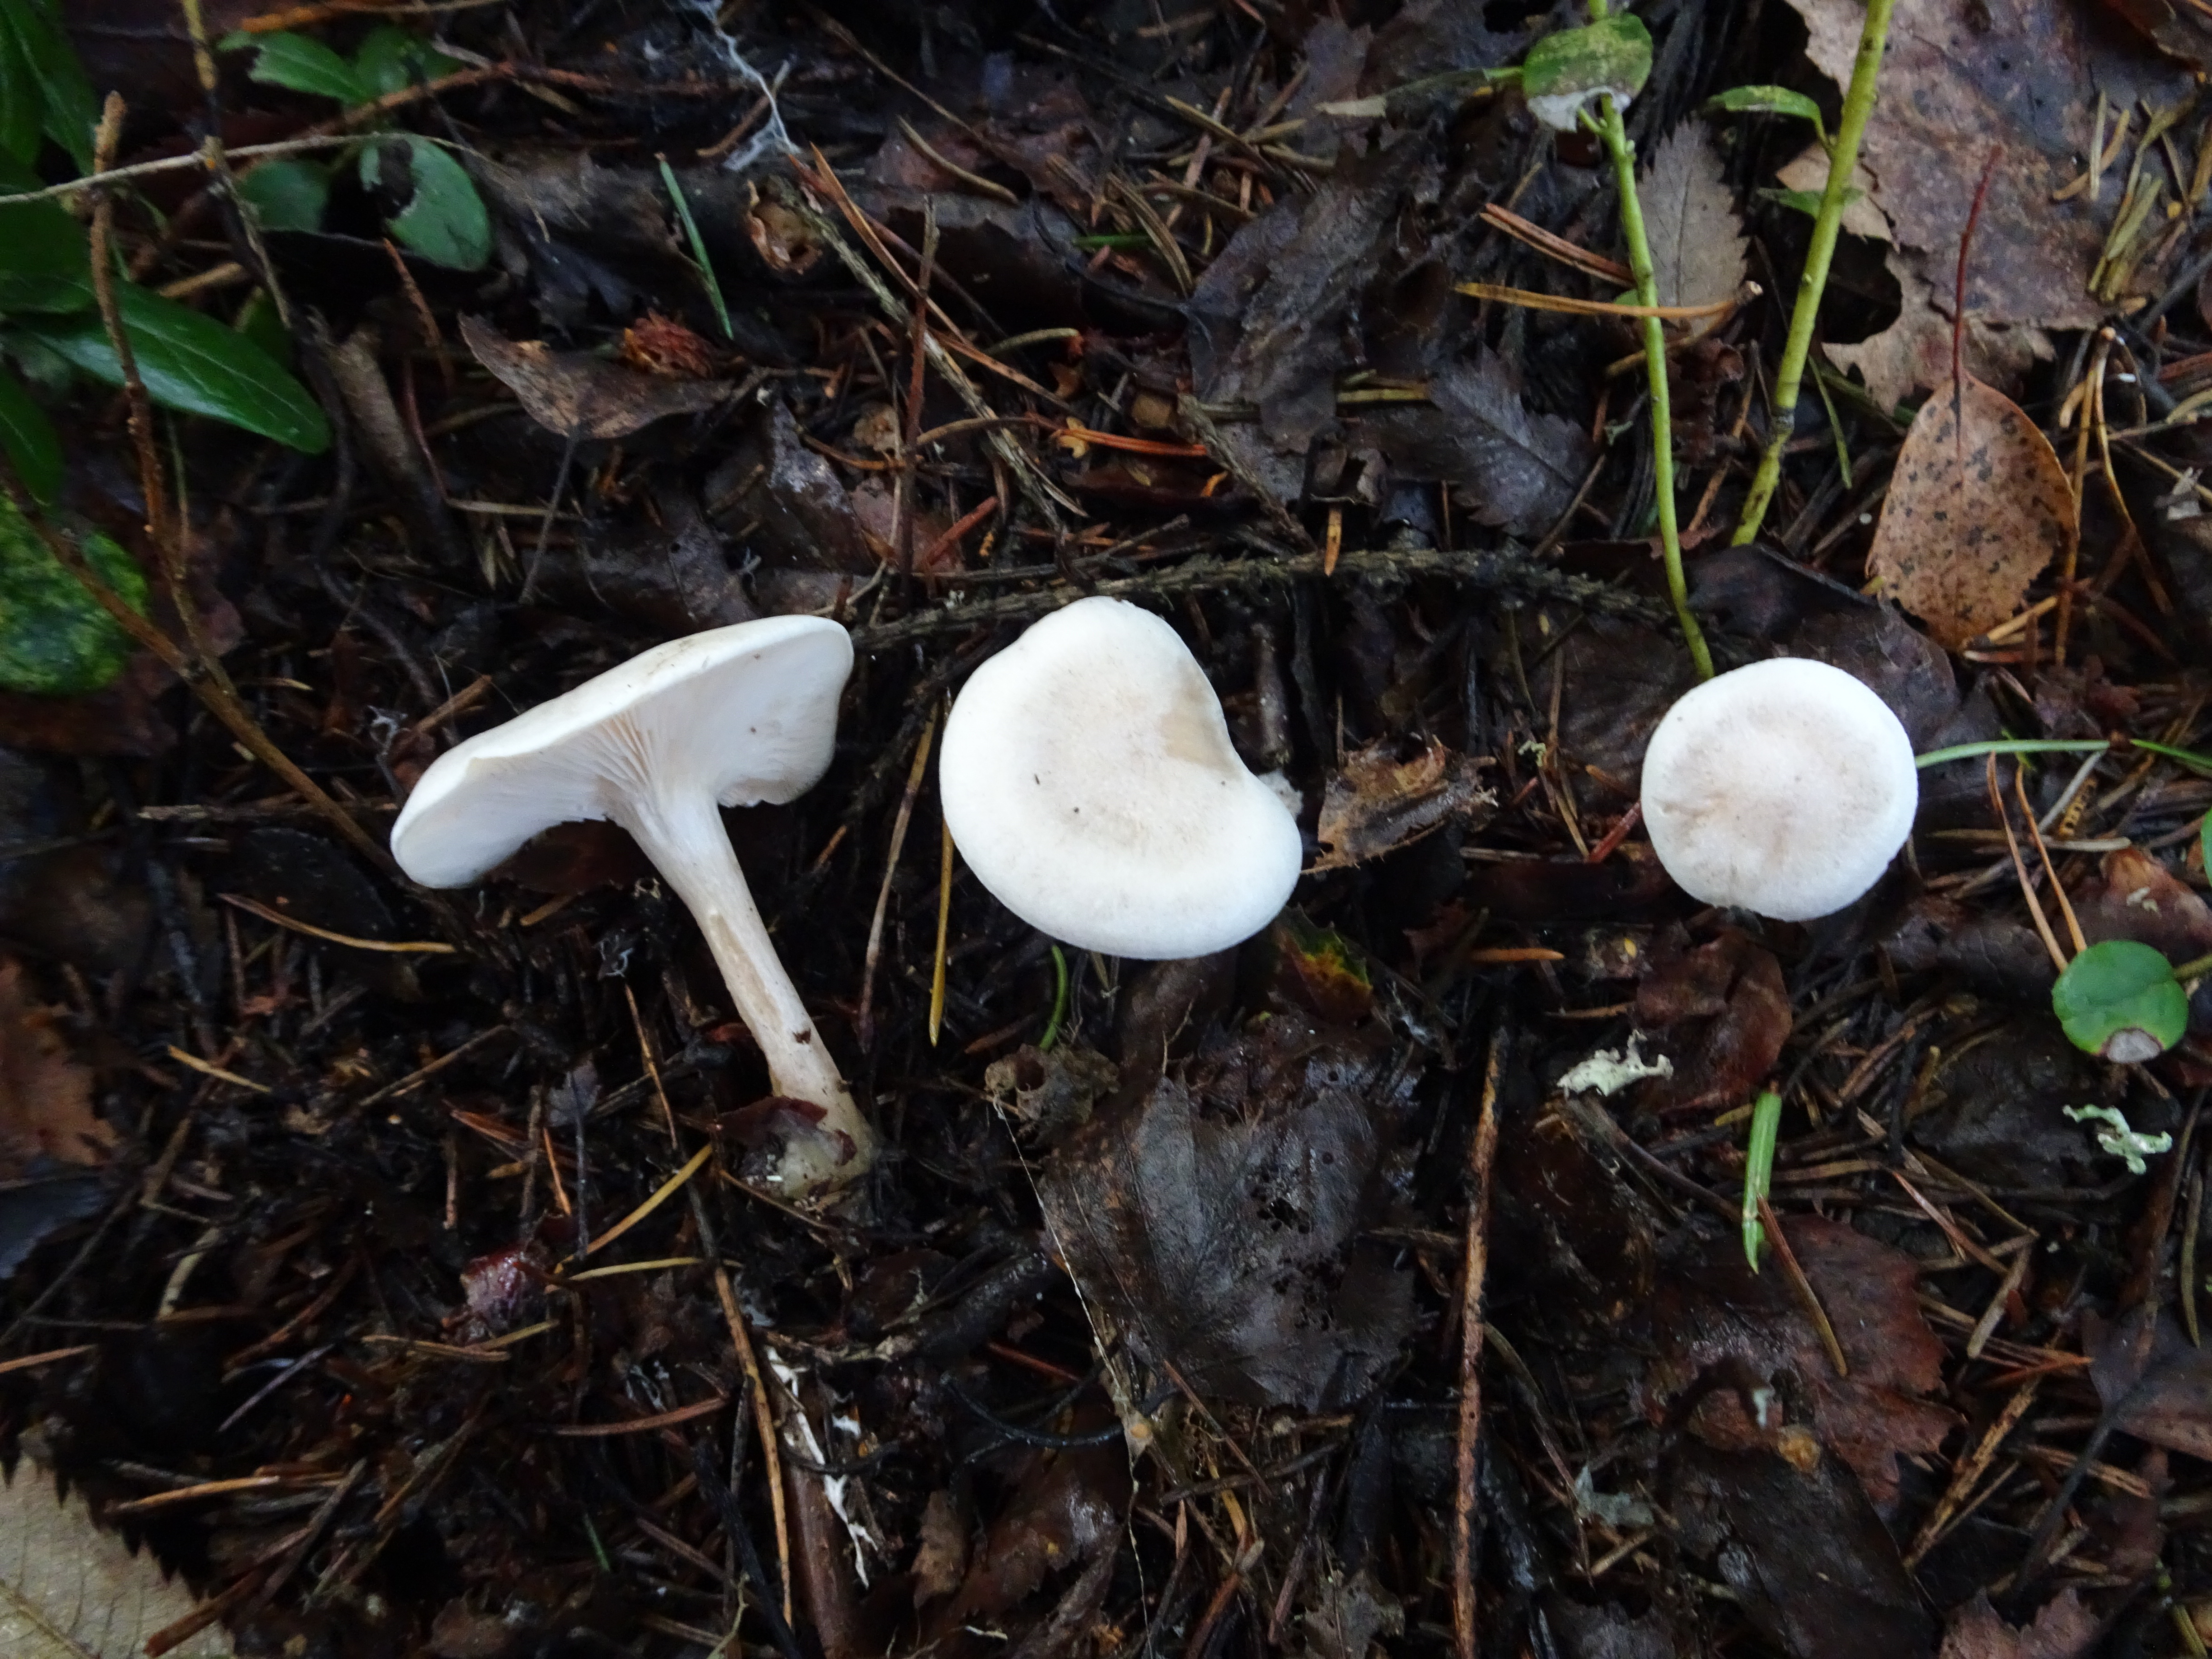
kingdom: Fungi
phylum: Basidiomycota
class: Agaricomycetes
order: Agaricales
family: Tricholomataceae
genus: Clitocybe
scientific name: Clitocybe
